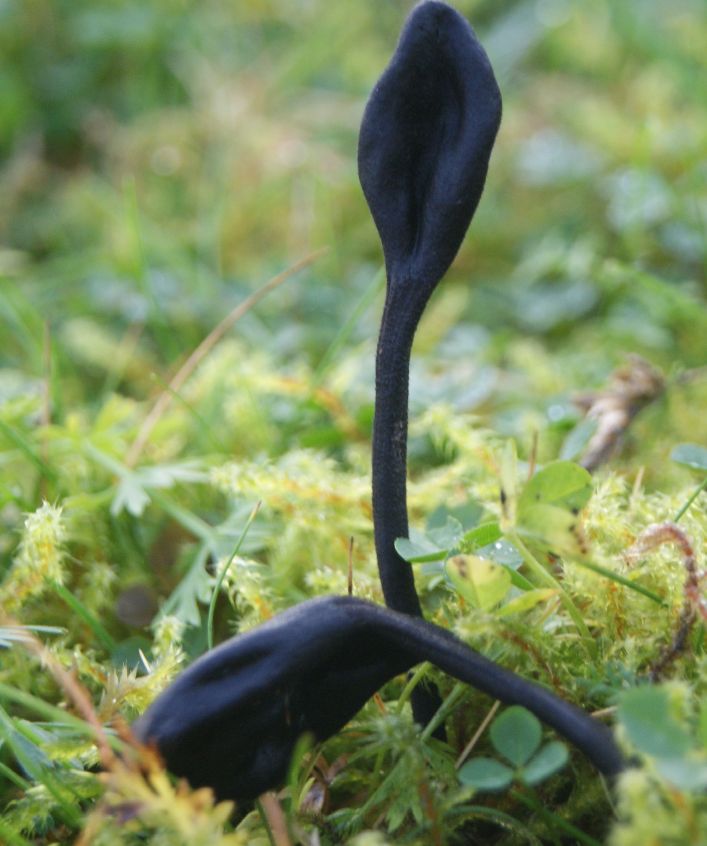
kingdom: Fungi
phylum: Ascomycota
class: Geoglossomycetes
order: Geoglossales
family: Geoglossaceae
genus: Trichoglossum
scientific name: Trichoglossum hirsutum
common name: håret jordtunge
